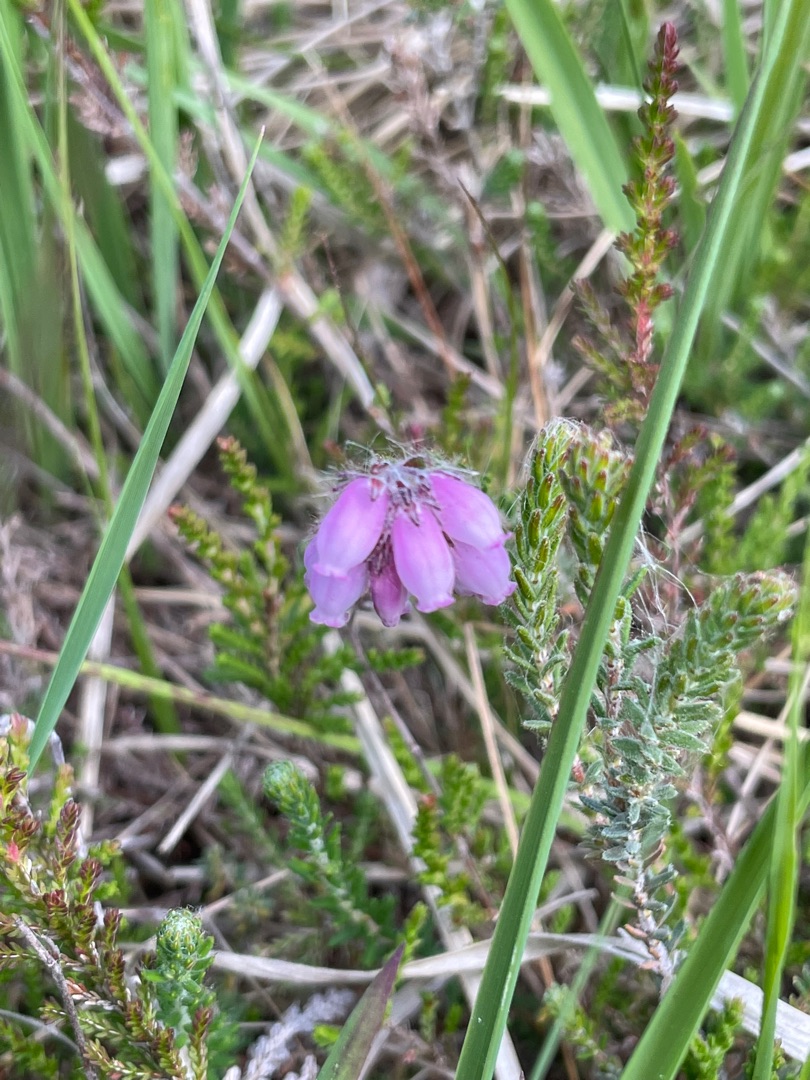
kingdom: Plantae
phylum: Tracheophyta
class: Magnoliopsida
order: Ericales
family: Ericaceae
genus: Erica
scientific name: Erica tetralix
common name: Klokkelyng
